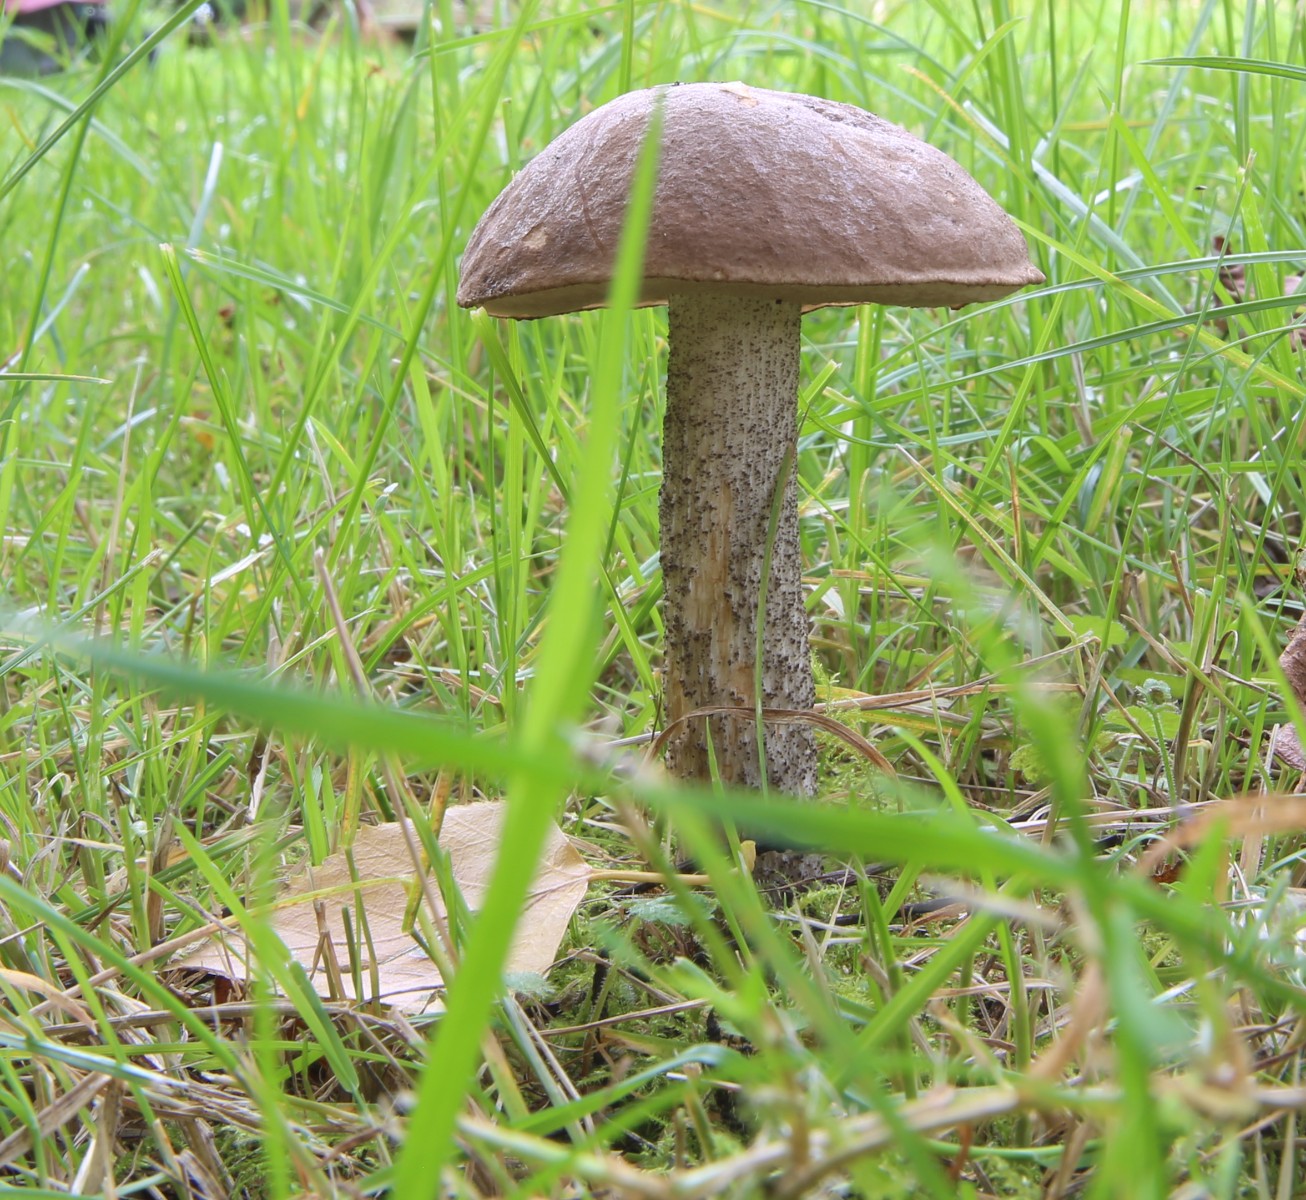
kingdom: Fungi
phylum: Basidiomycota
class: Agaricomycetes
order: Boletales
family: Boletaceae
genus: Leccinum
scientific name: Leccinum scabrum
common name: brun skælrørhat
